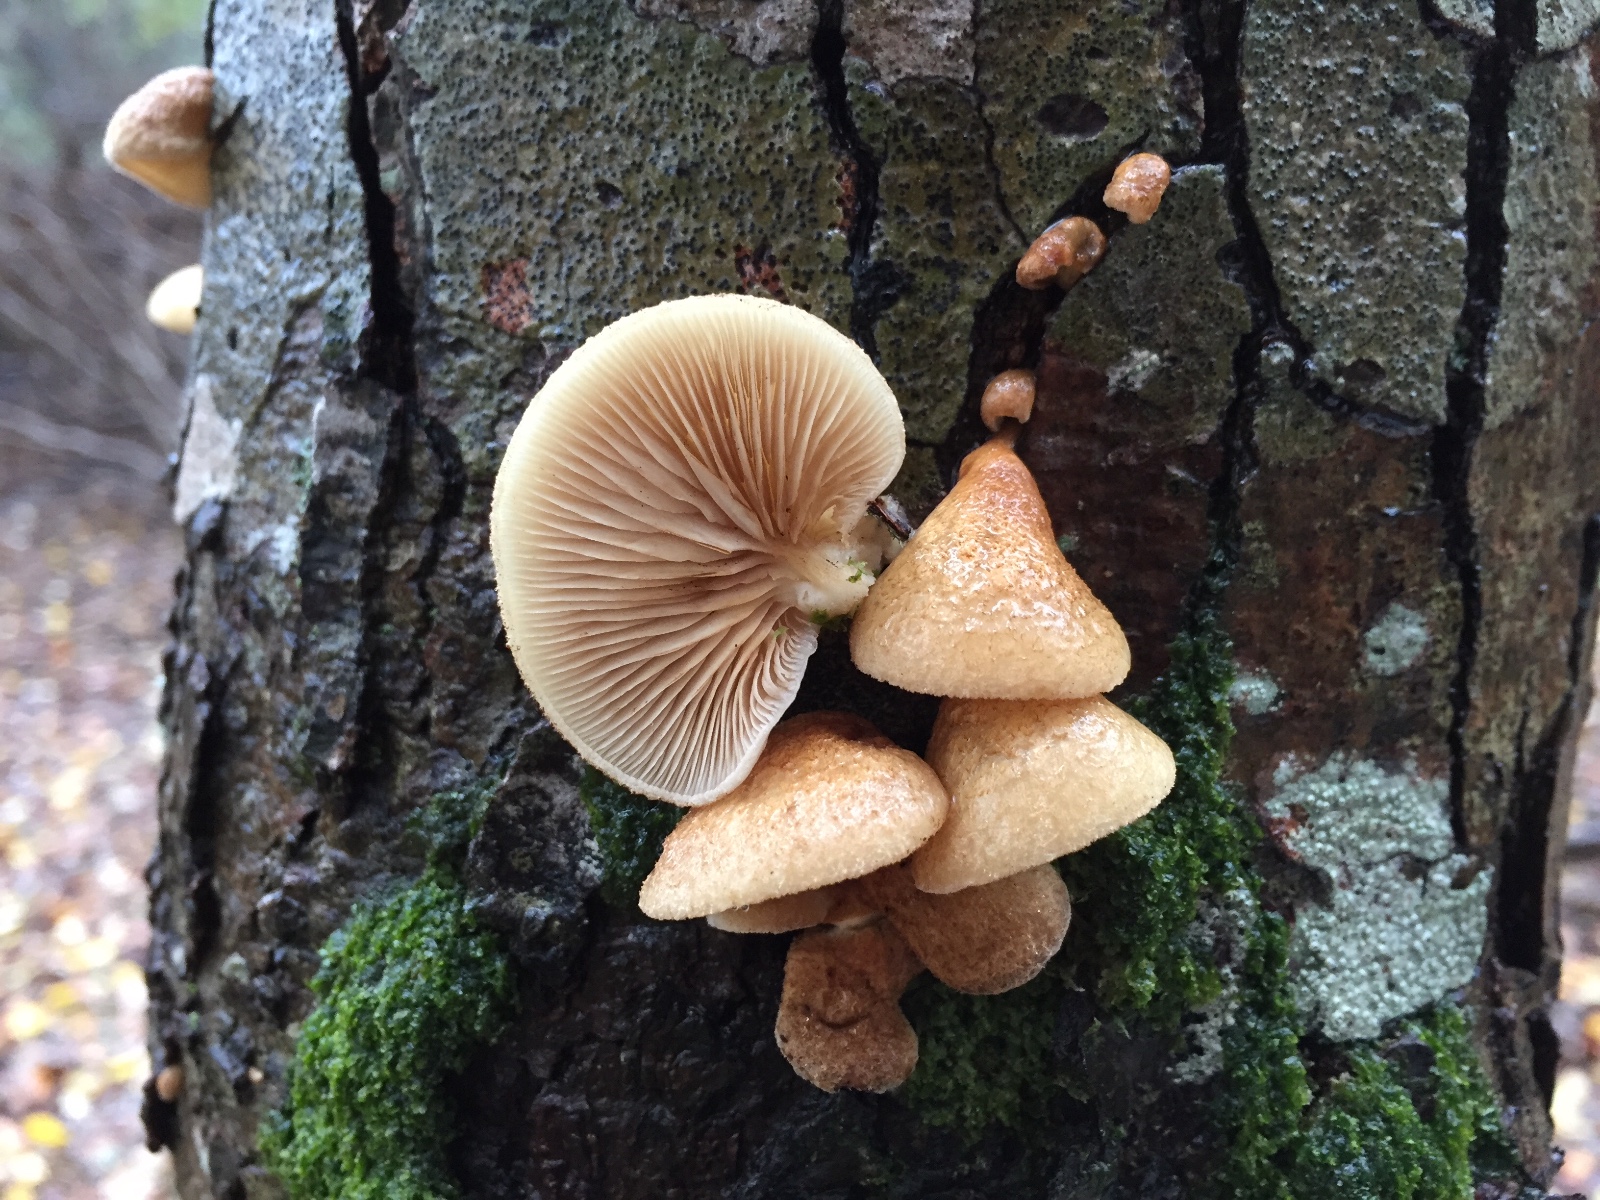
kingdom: Fungi
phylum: Basidiomycota
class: Agaricomycetes
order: Agaricales
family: Crepidotaceae
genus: Crepidotus
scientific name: Crepidotus calolepis
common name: småskællet muslingesvamp
